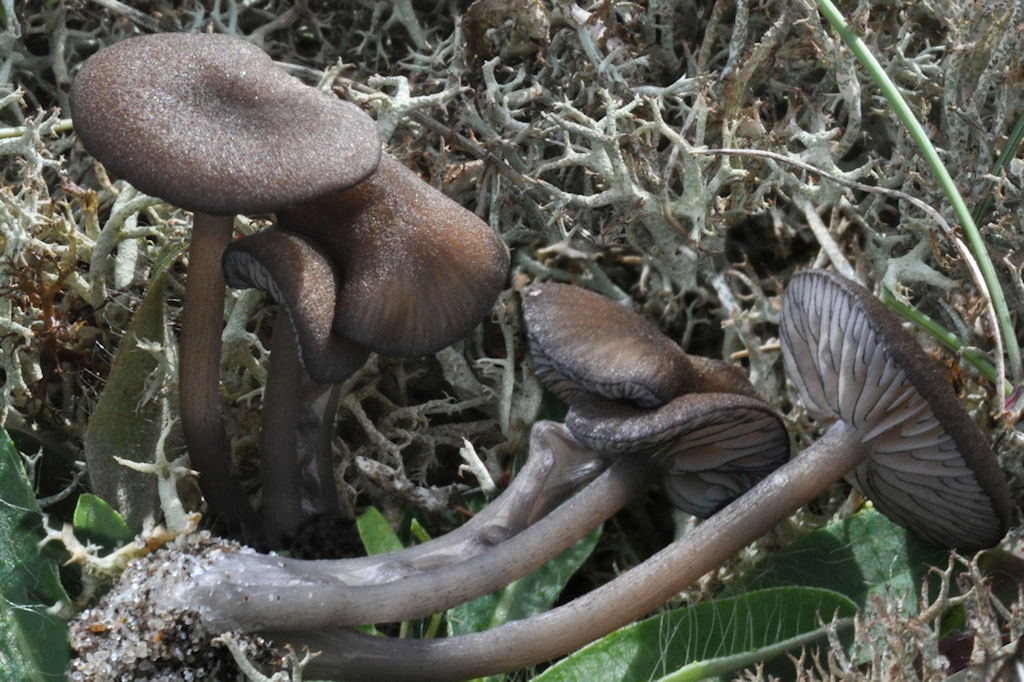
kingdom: Fungi
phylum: Basidiomycota
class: Agaricomycetes
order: Agaricales
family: Entolomataceae
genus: Entoloma
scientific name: Entoloma caesiocinctum
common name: Blue-girdled pinkgill
